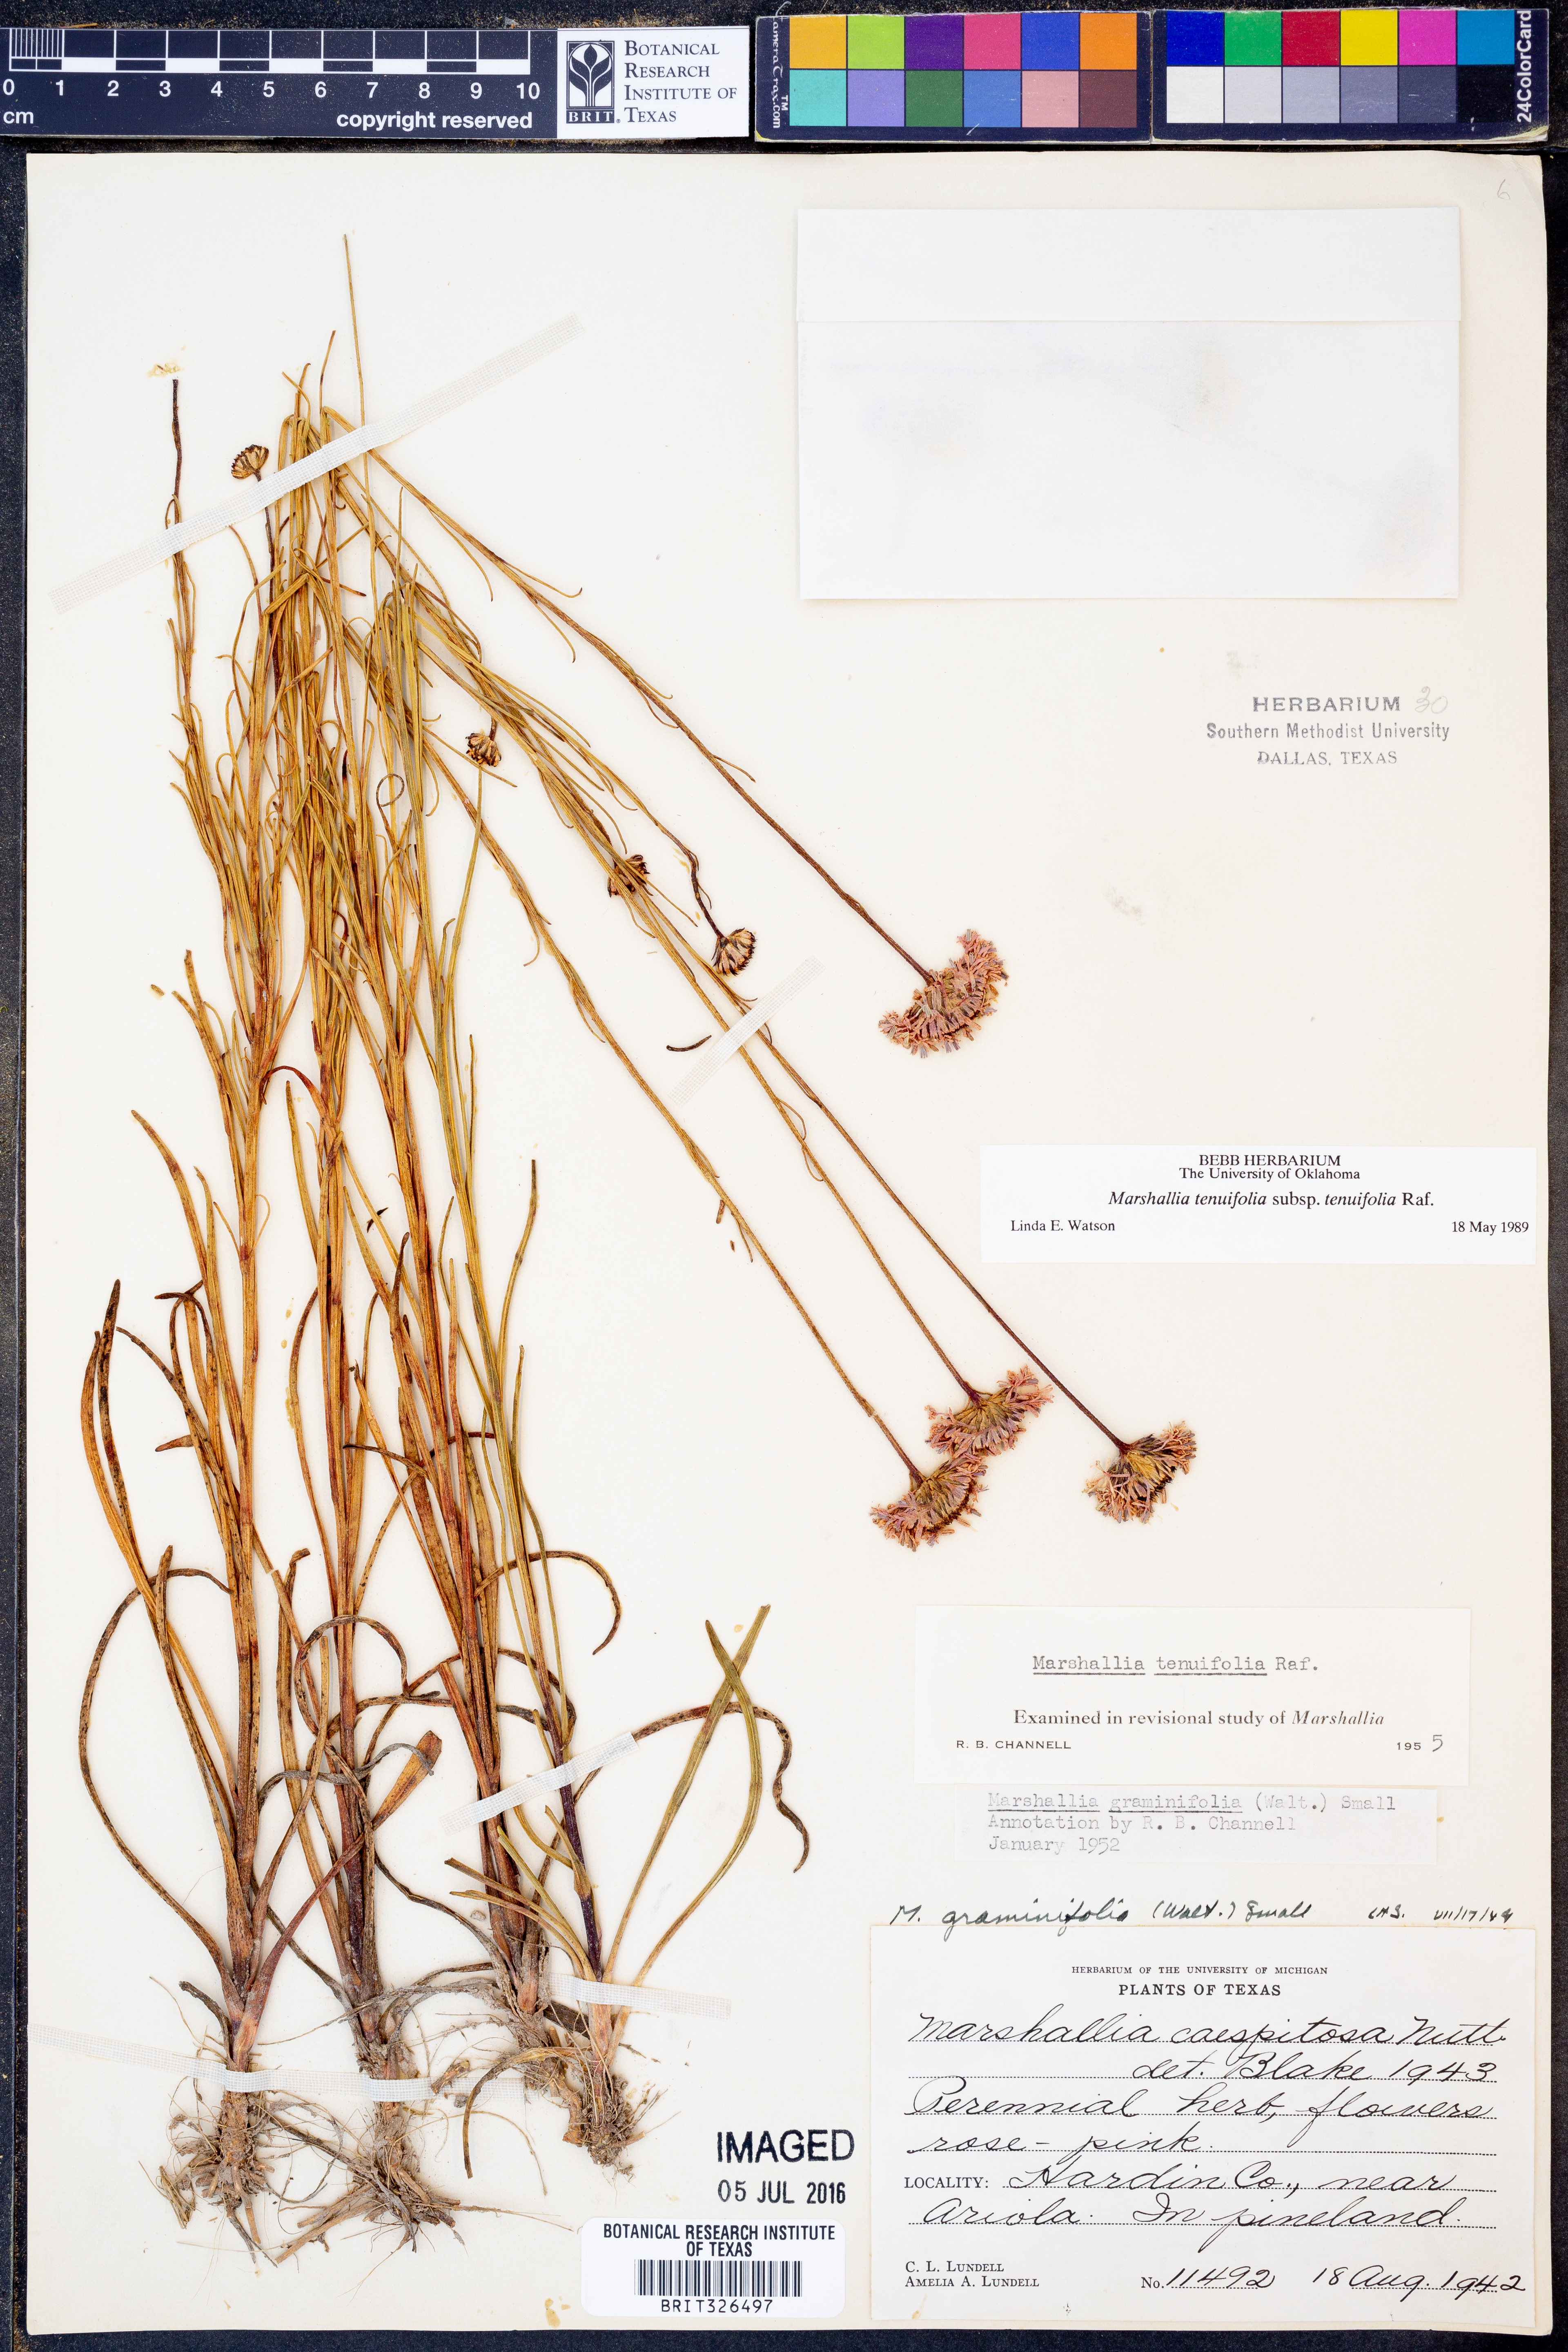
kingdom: Plantae
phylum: Tracheophyta
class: Magnoliopsida
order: Asterales
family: Asteraceae
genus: Vernonia
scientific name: Vernonia angustifolia
